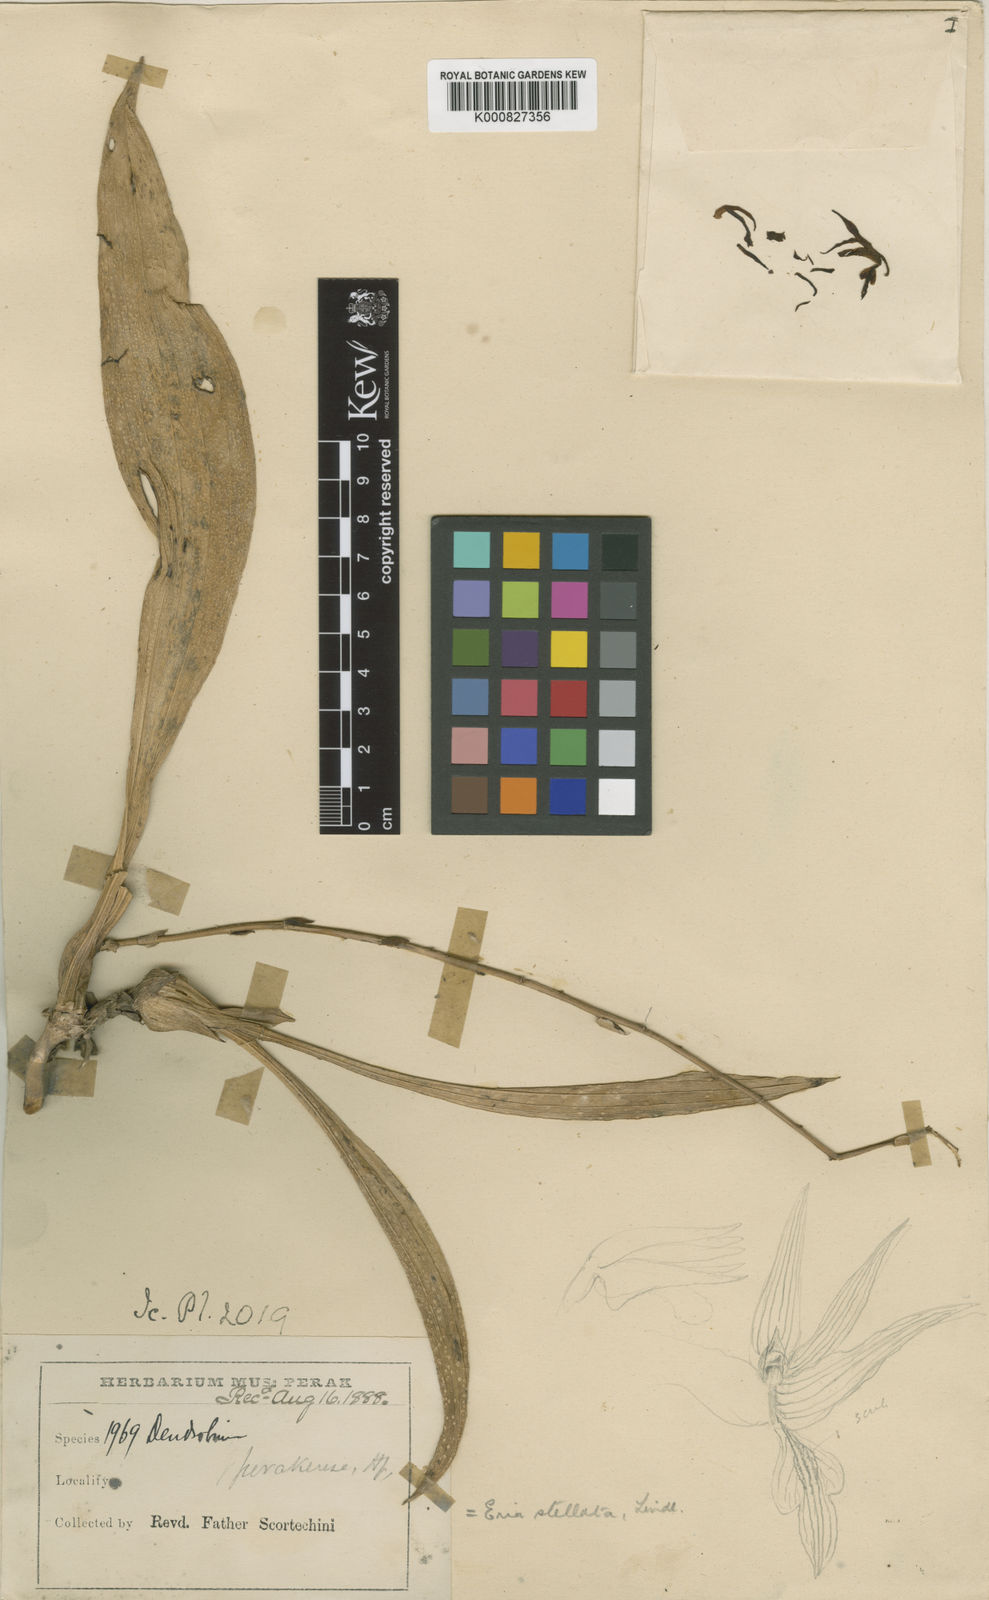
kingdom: Plantae
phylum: Tracheophyta
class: Liliopsida
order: Asparagales
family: Orchidaceae
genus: Eria
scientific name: Eria javanica
